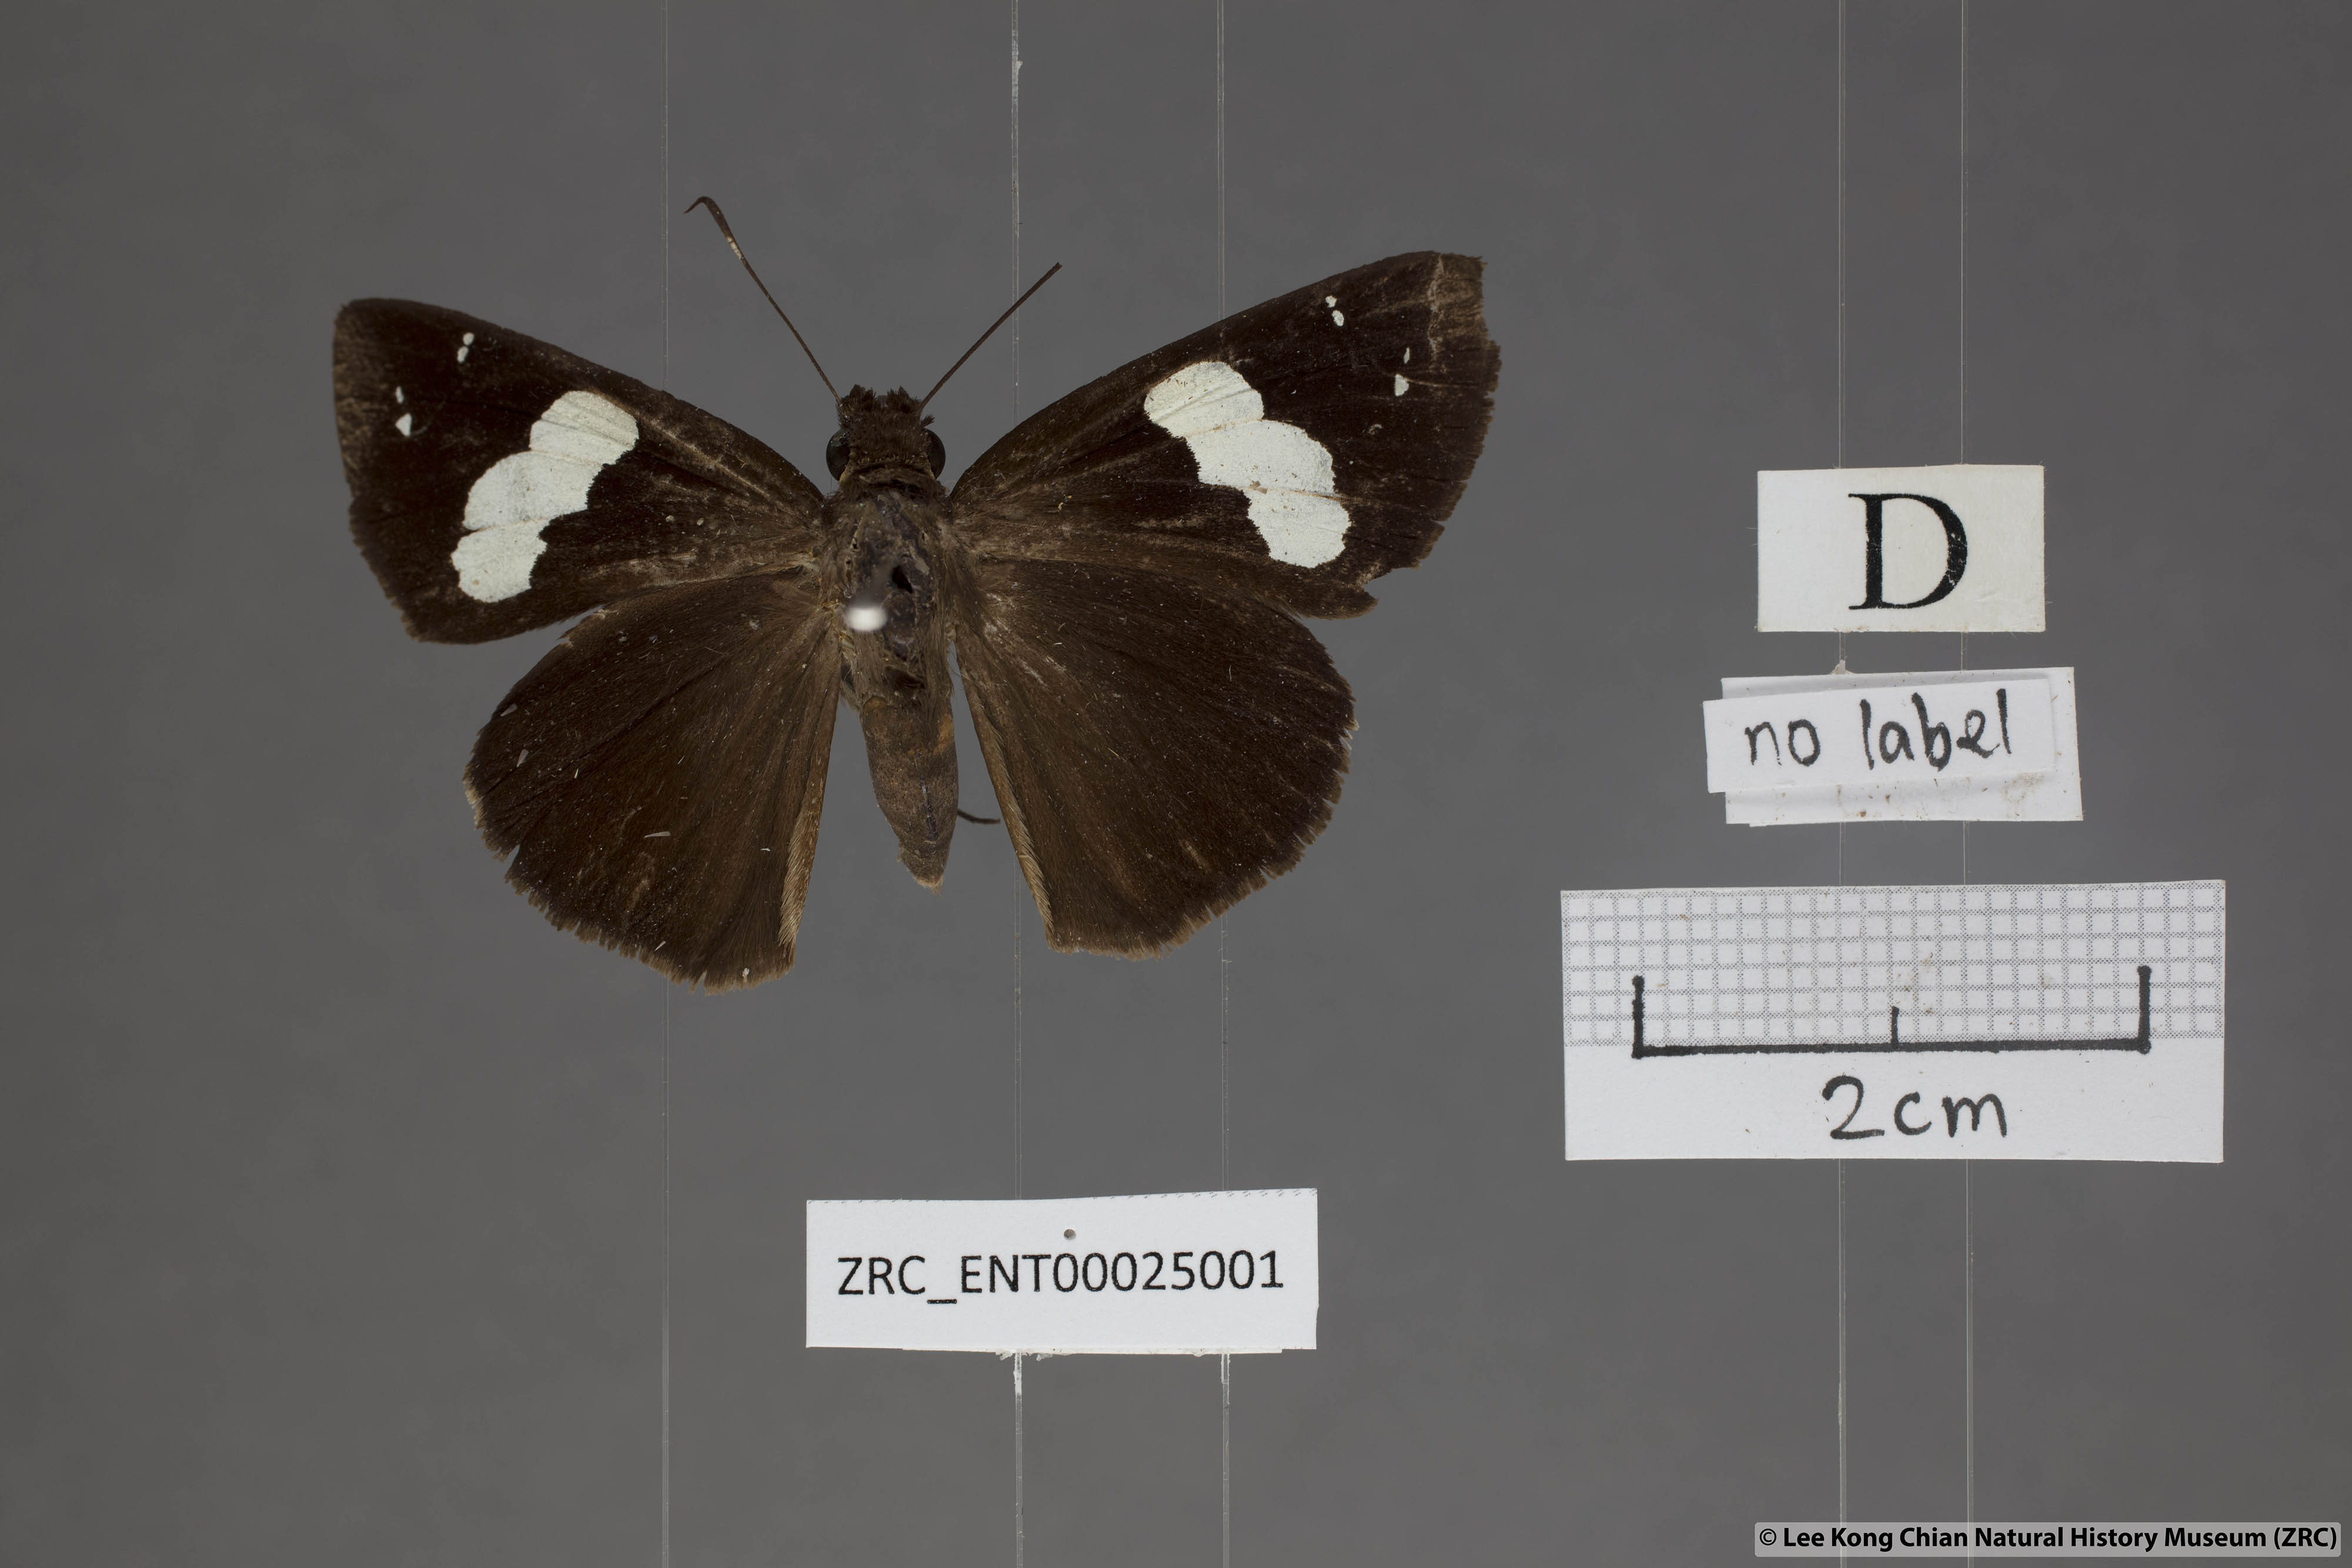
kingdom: Animalia
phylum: Arthropoda
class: Insecta
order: Lepidoptera
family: Hesperiidae
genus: Notocrypta
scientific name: Notocrypta curvifascia
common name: Restricted demon
